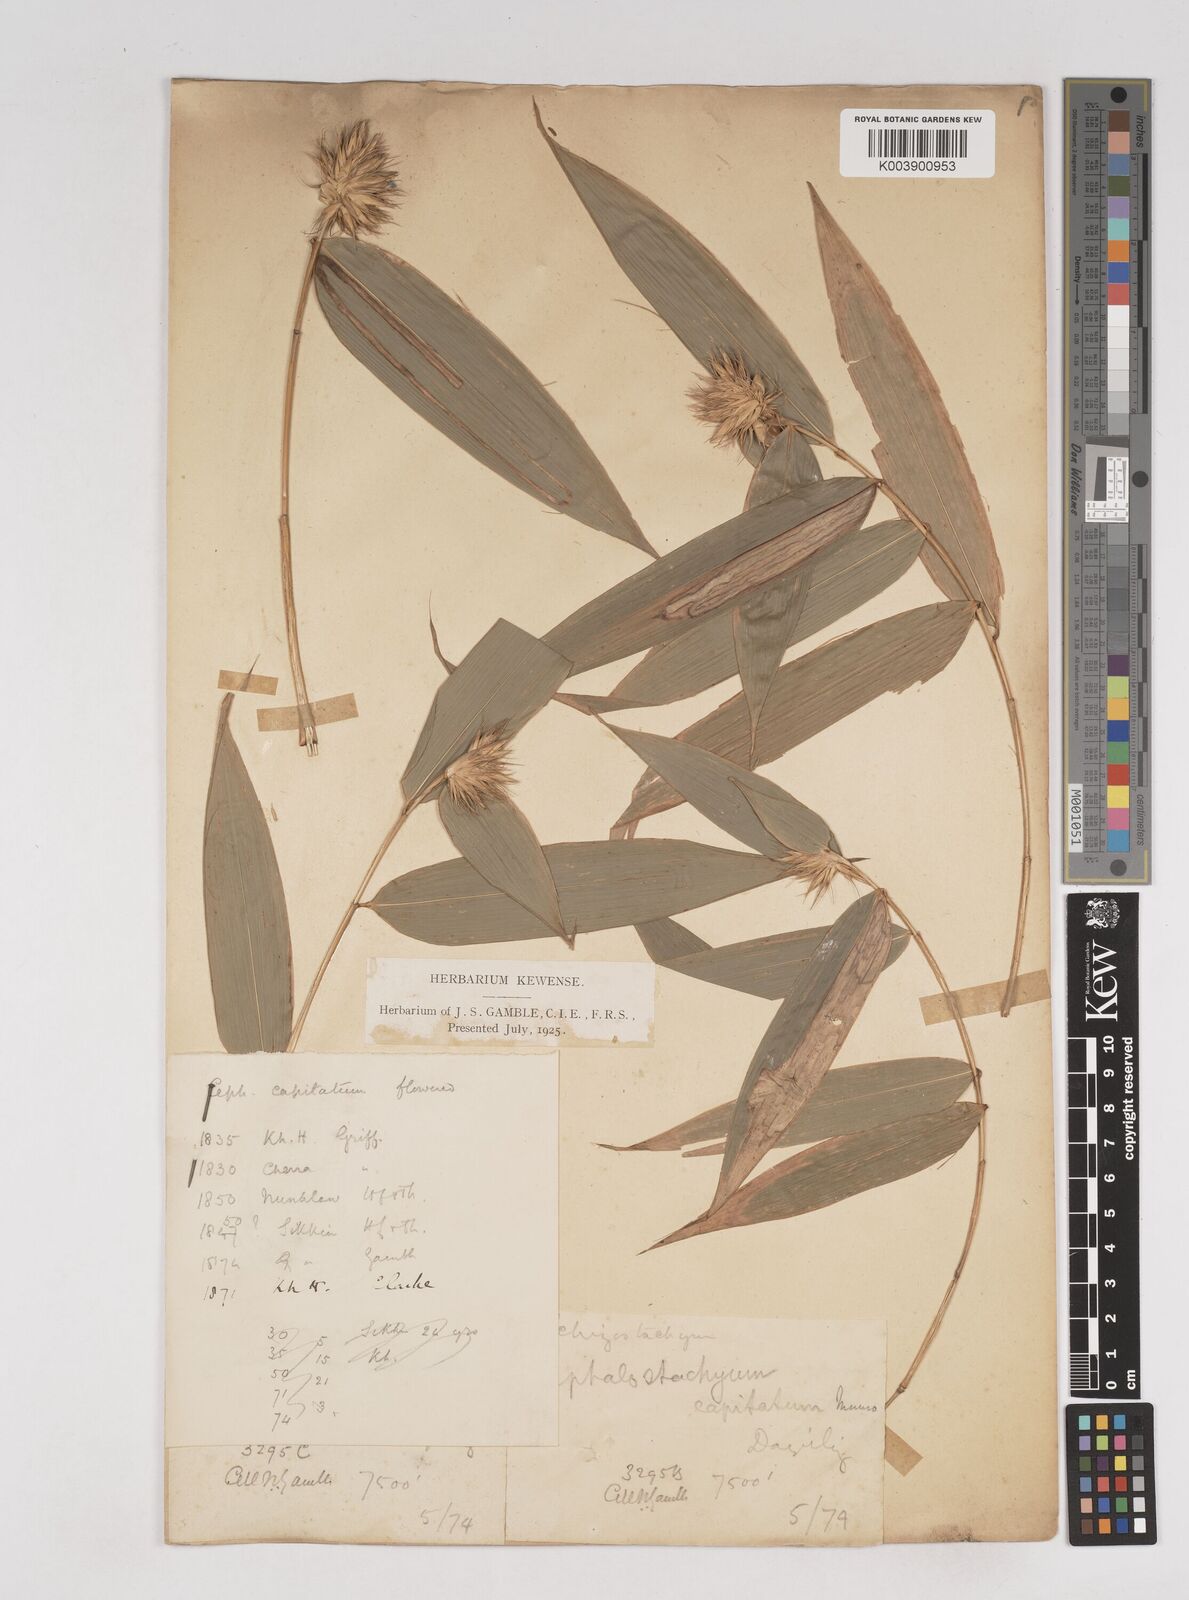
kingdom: Plantae
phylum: Tracheophyta
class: Liliopsida
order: Poales
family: Poaceae
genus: Cephalostachyum
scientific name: Cephalostachyum capitatum
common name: Hollow bamboo
